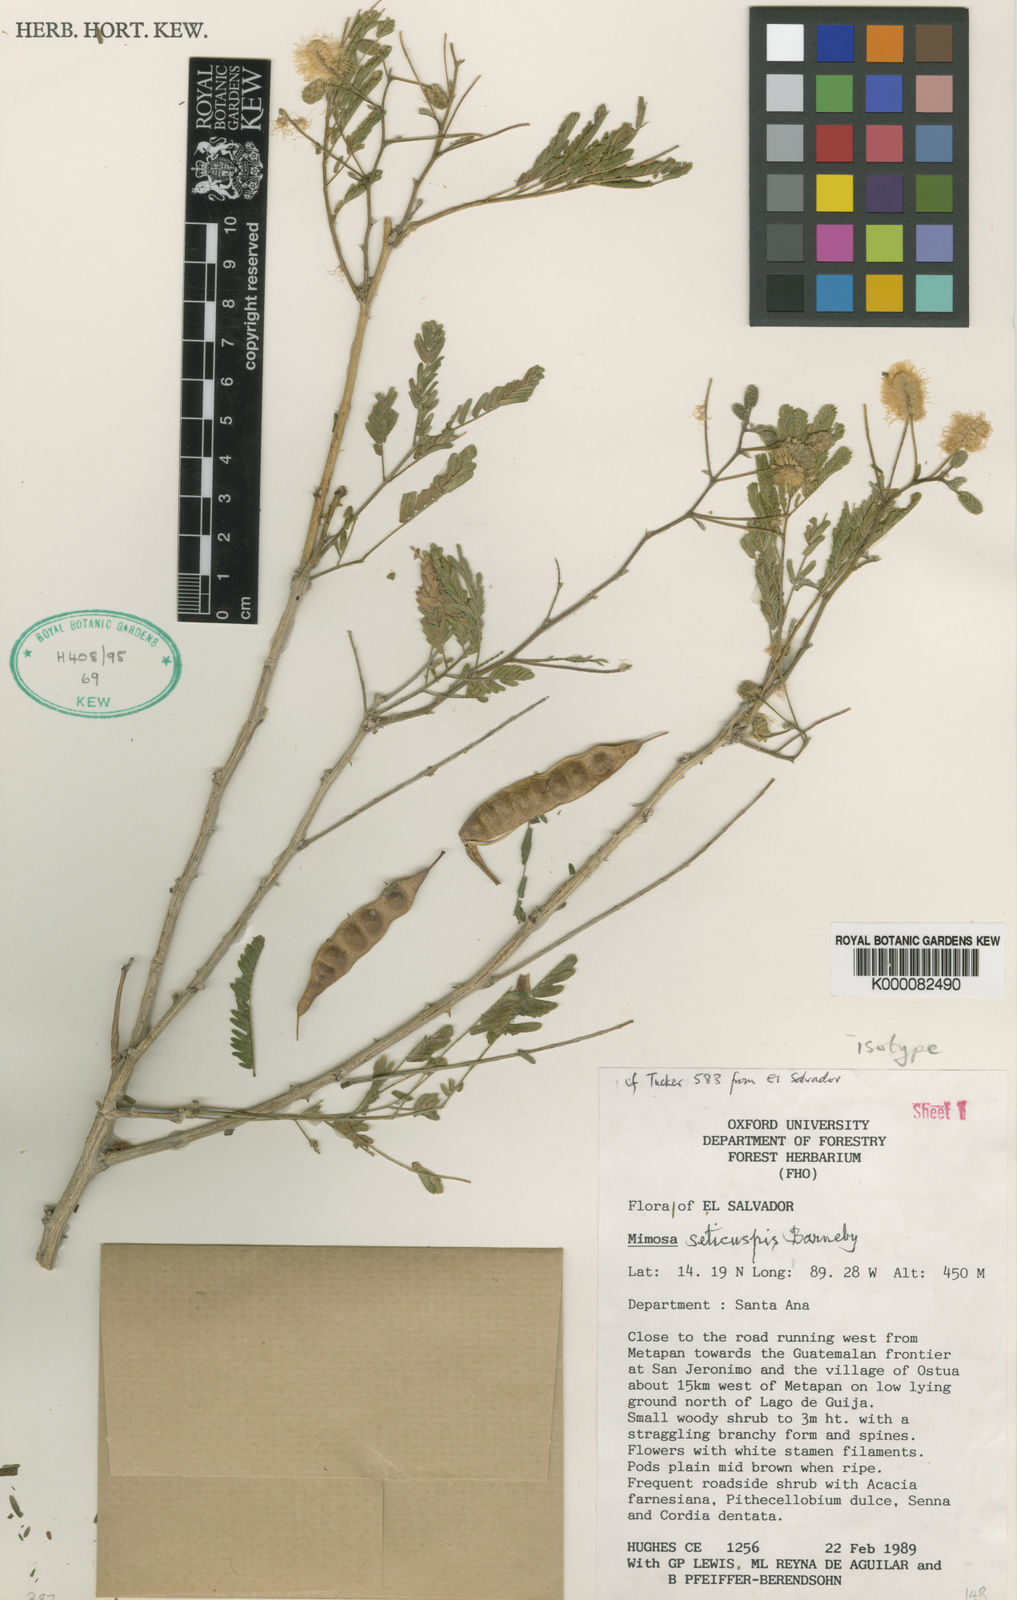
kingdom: Plantae
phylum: Tracheophyta
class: Magnoliopsida
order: Fabales
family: Fabaceae
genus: Mimosa
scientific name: Mimosa acantholoba
